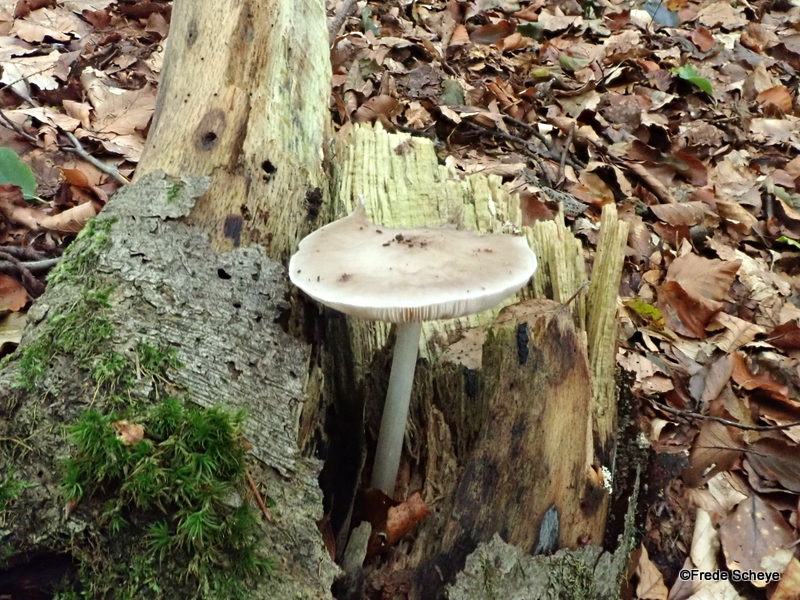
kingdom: Fungi
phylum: Basidiomycota
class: Agaricomycetes
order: Agaricales
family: Physalacriaceae
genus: Hymenopellis
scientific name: Hymenopellis radicata
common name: almindelig pælerodshat
